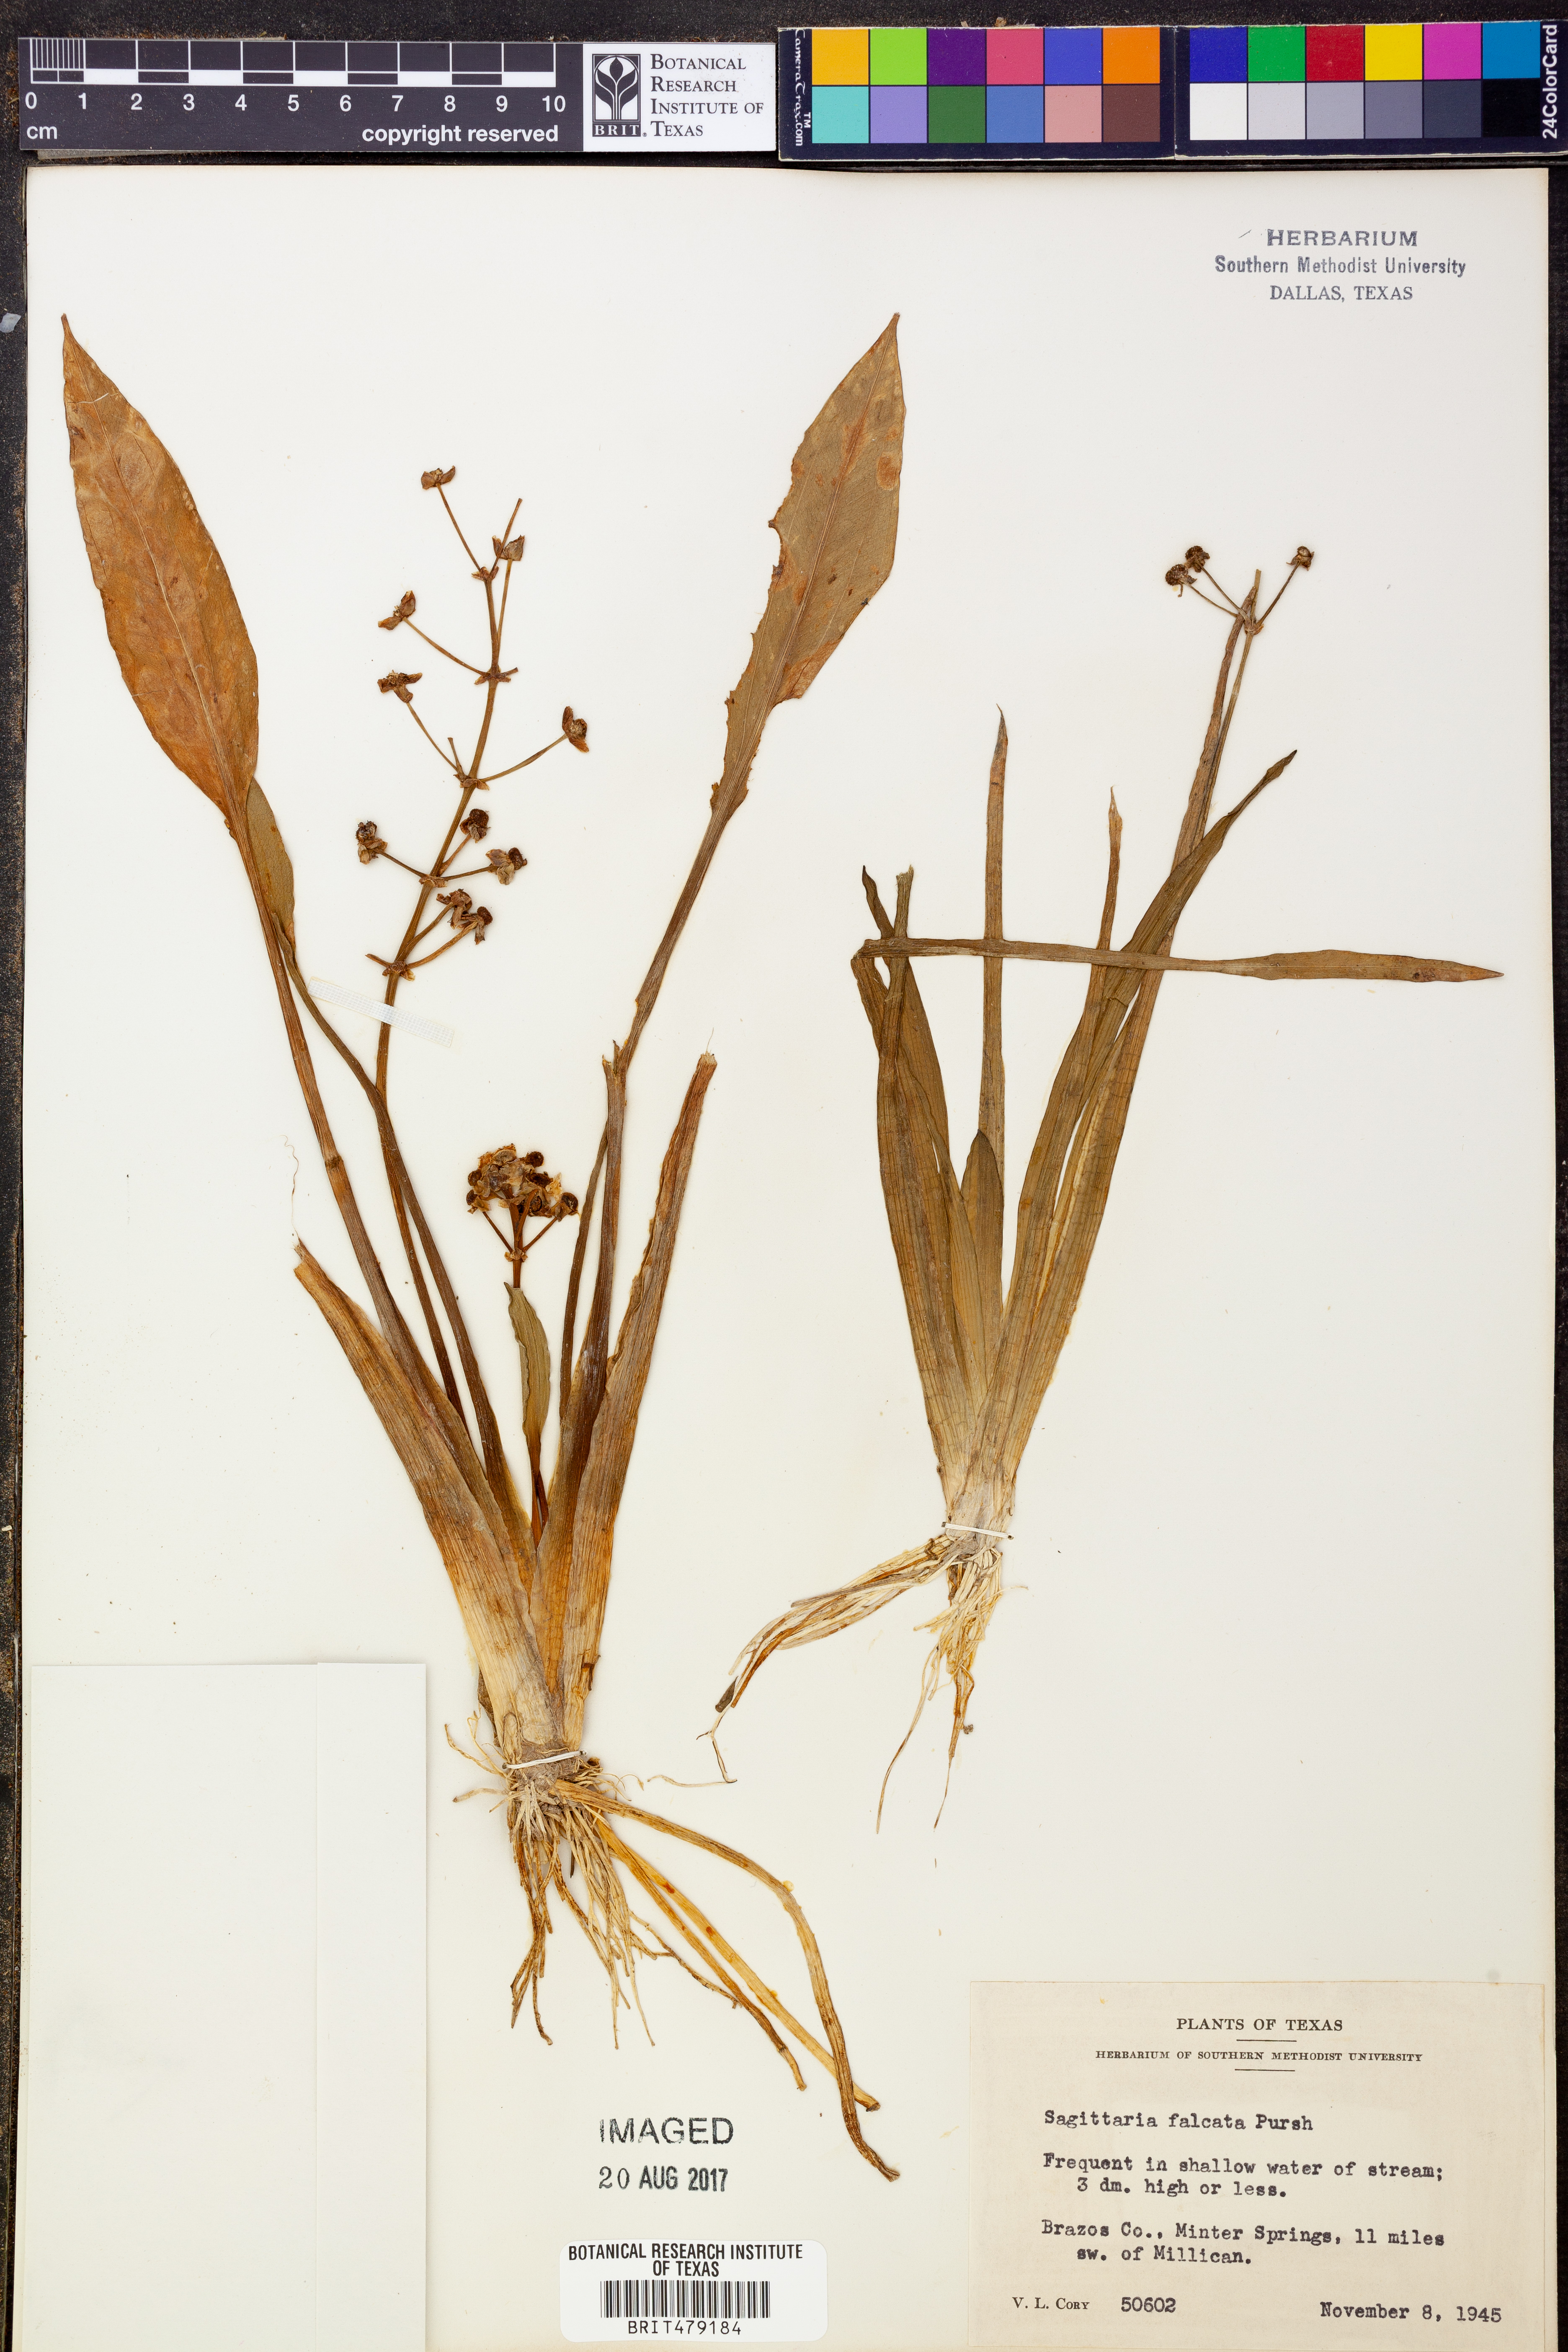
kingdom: Plantae
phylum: Tracheophyta
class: Liliopsida
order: Alismatales
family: Alismataceae
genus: Sagittaria
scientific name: Sagittaria lancifolia
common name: Lance-leaf arrowhead
